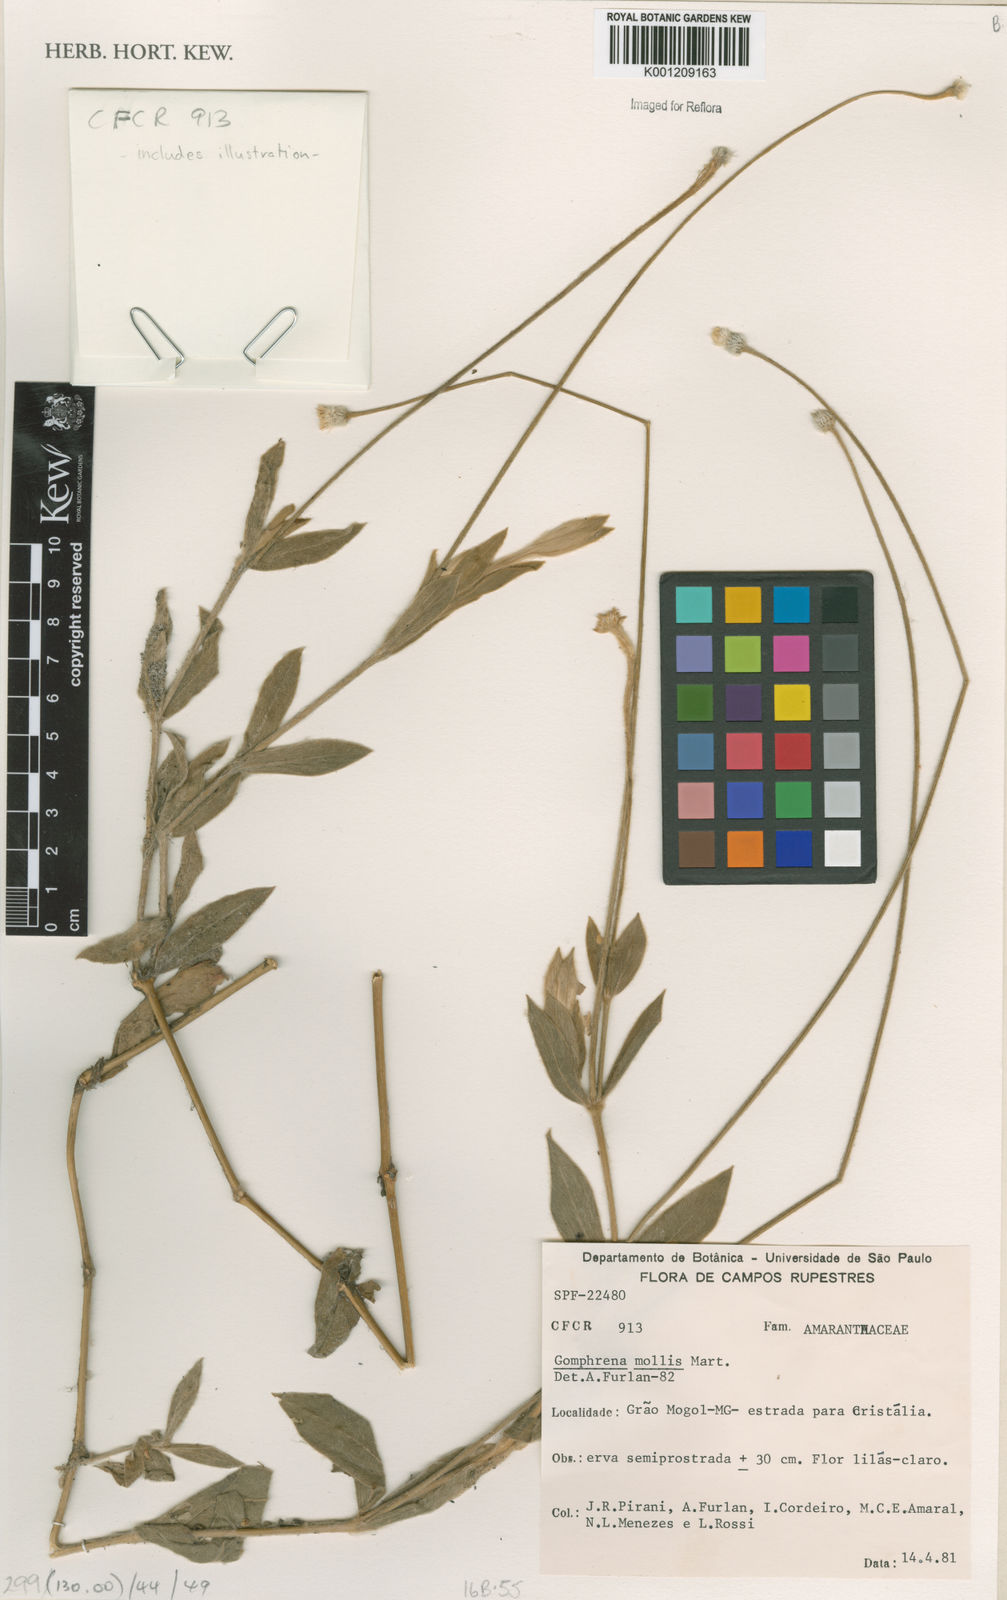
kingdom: Plantae
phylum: Tracheophyta
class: Magnoliopsida
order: Caryophyllales
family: Amaranthaceae
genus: Gomphrena
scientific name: Gomphrena mollis
